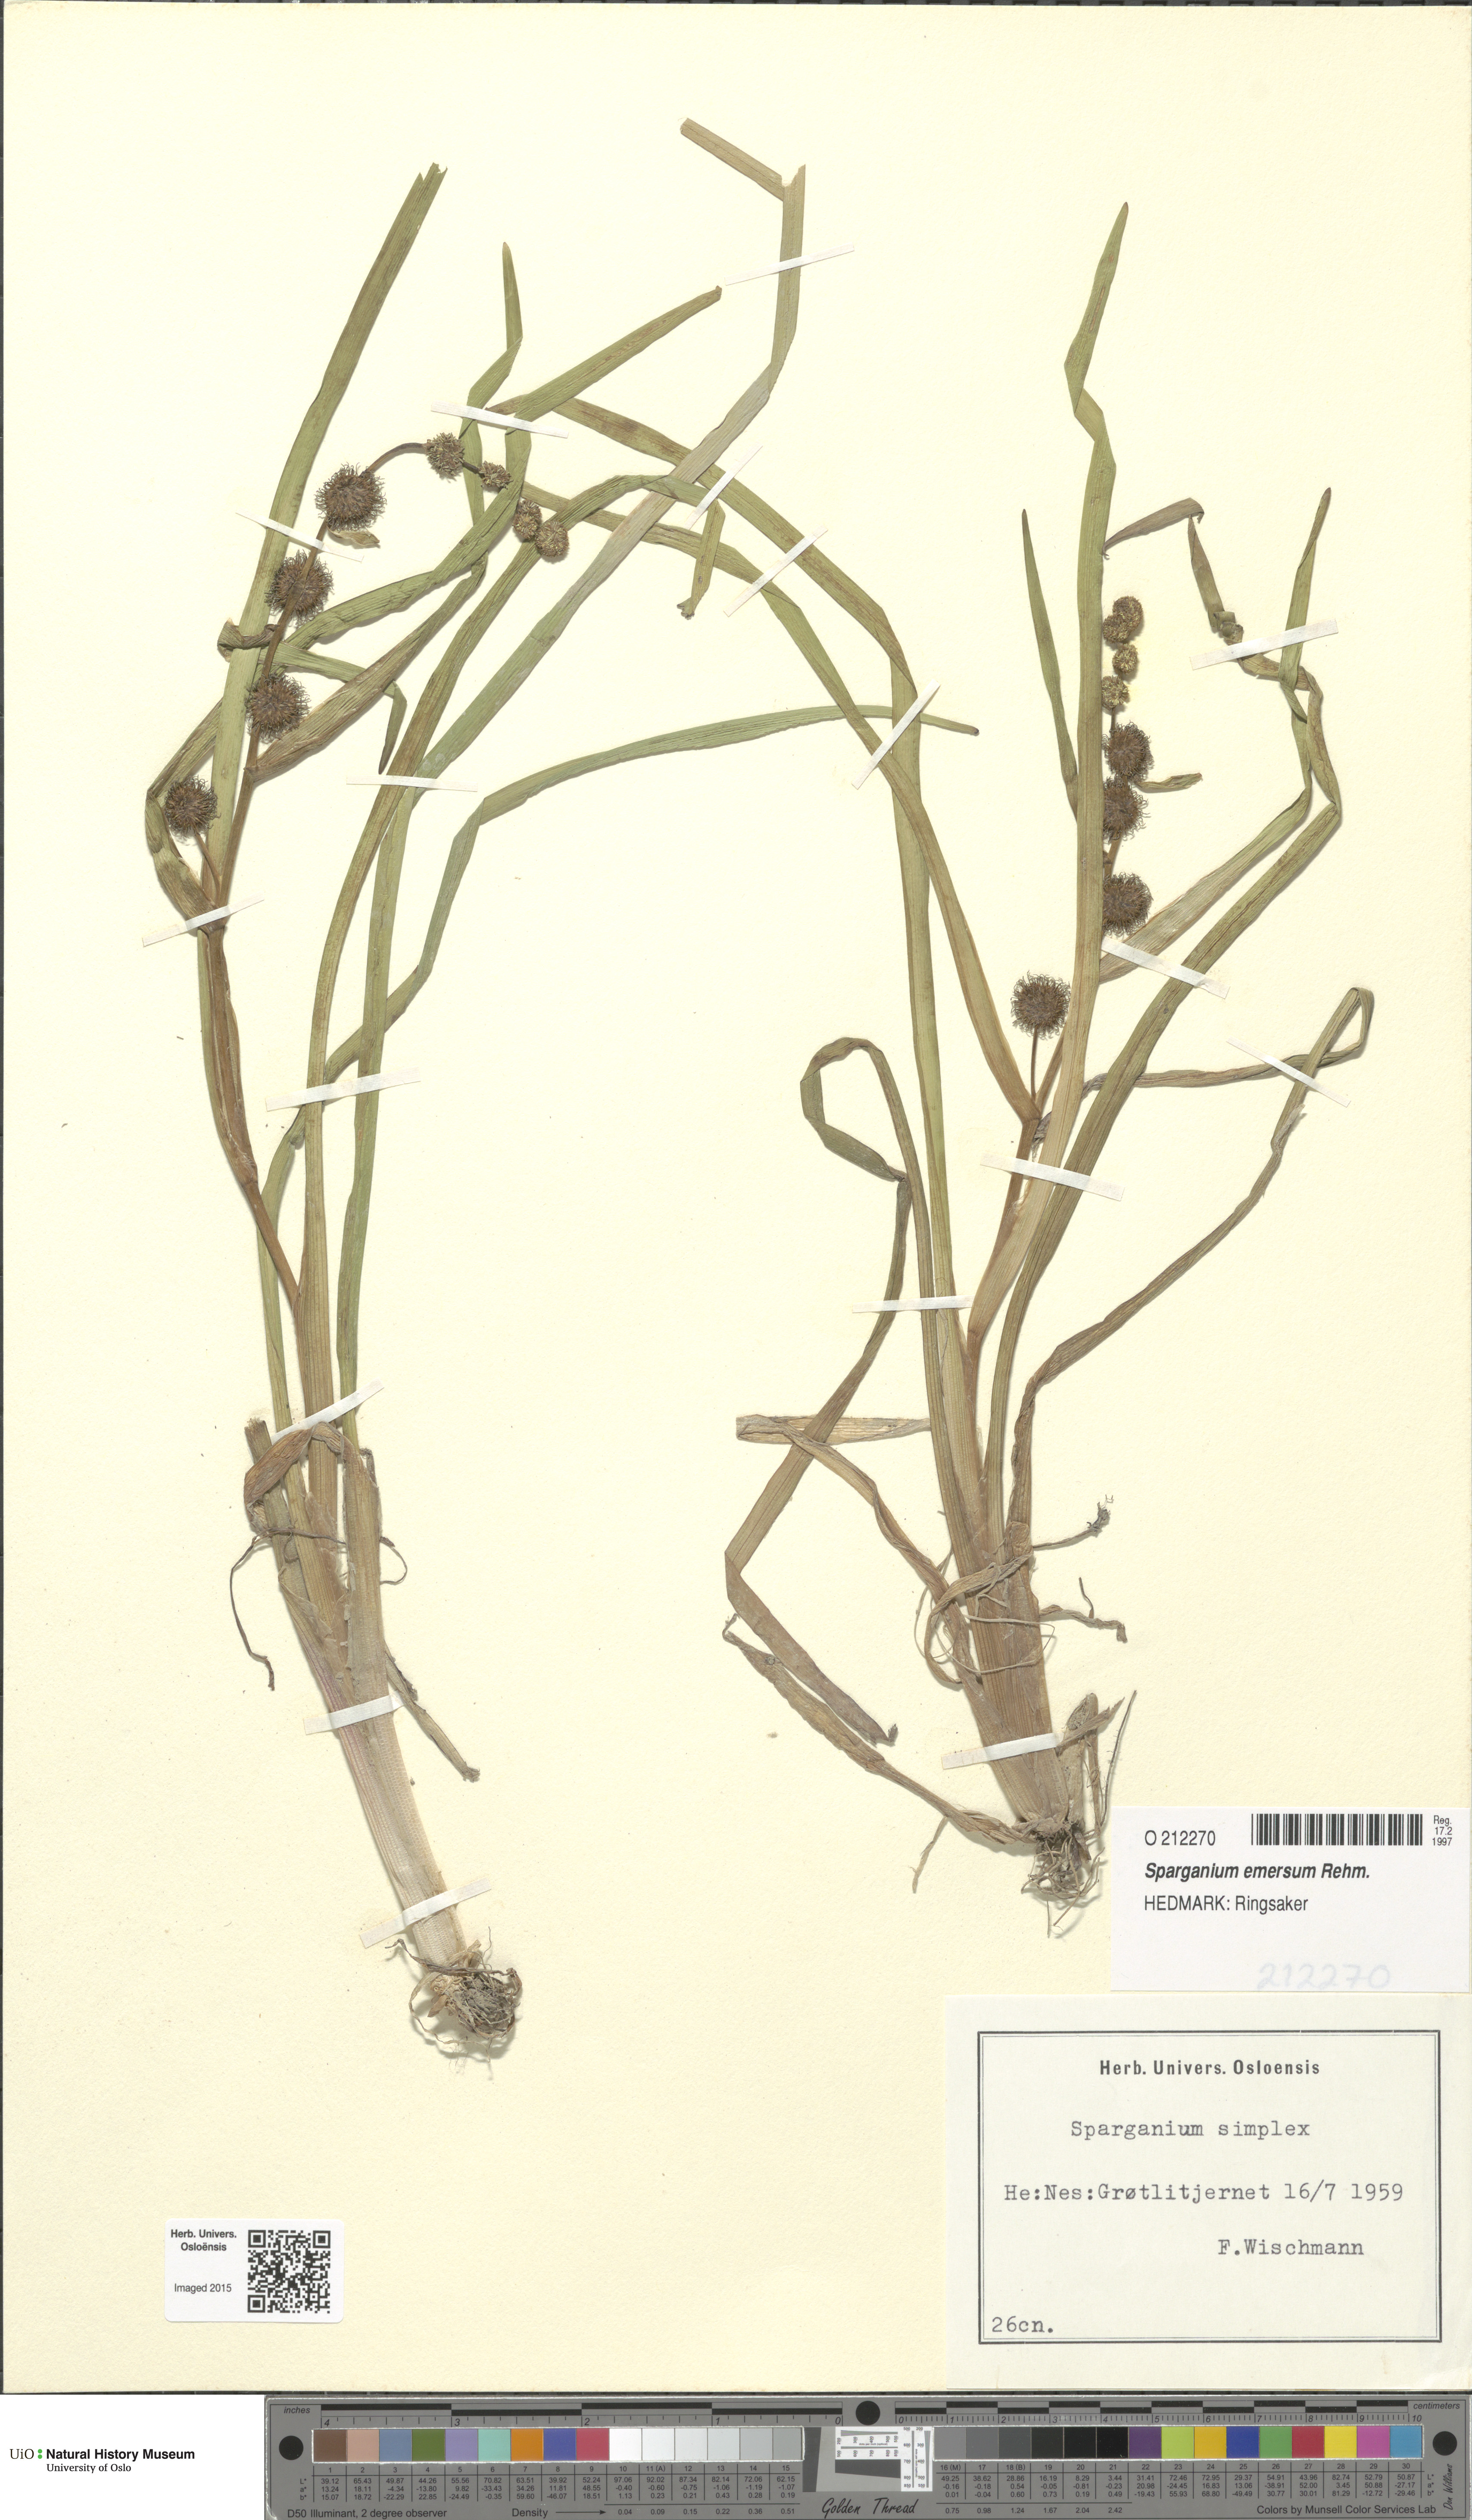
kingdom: Plantae
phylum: Tracheophyta
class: Liliopsida
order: Poales
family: Typhaceae
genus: Sparganium
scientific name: Sparganium emersum
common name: Unbranched bur-reed
